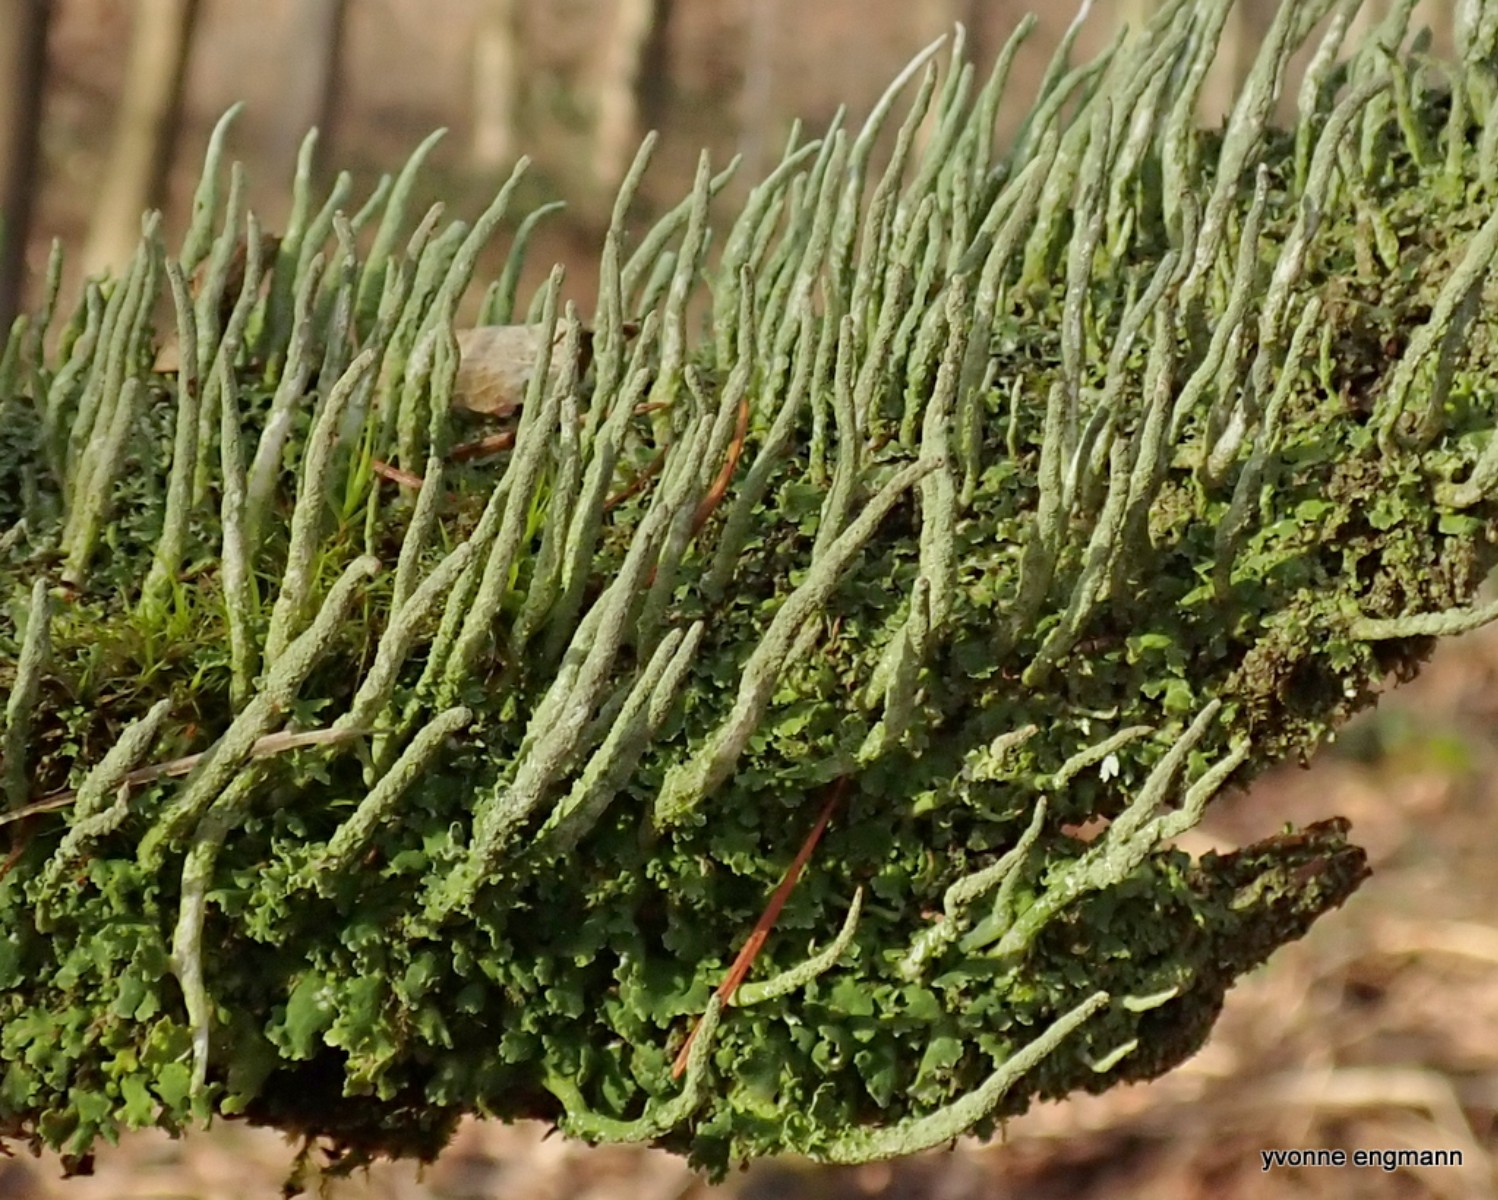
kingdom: Fungi
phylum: Ascomycota
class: Lecanoromycetes
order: Lecanorales
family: Cladoniaceae
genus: Cladonia
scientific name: Cladonia coniocraea
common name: træfods-bægerlav
